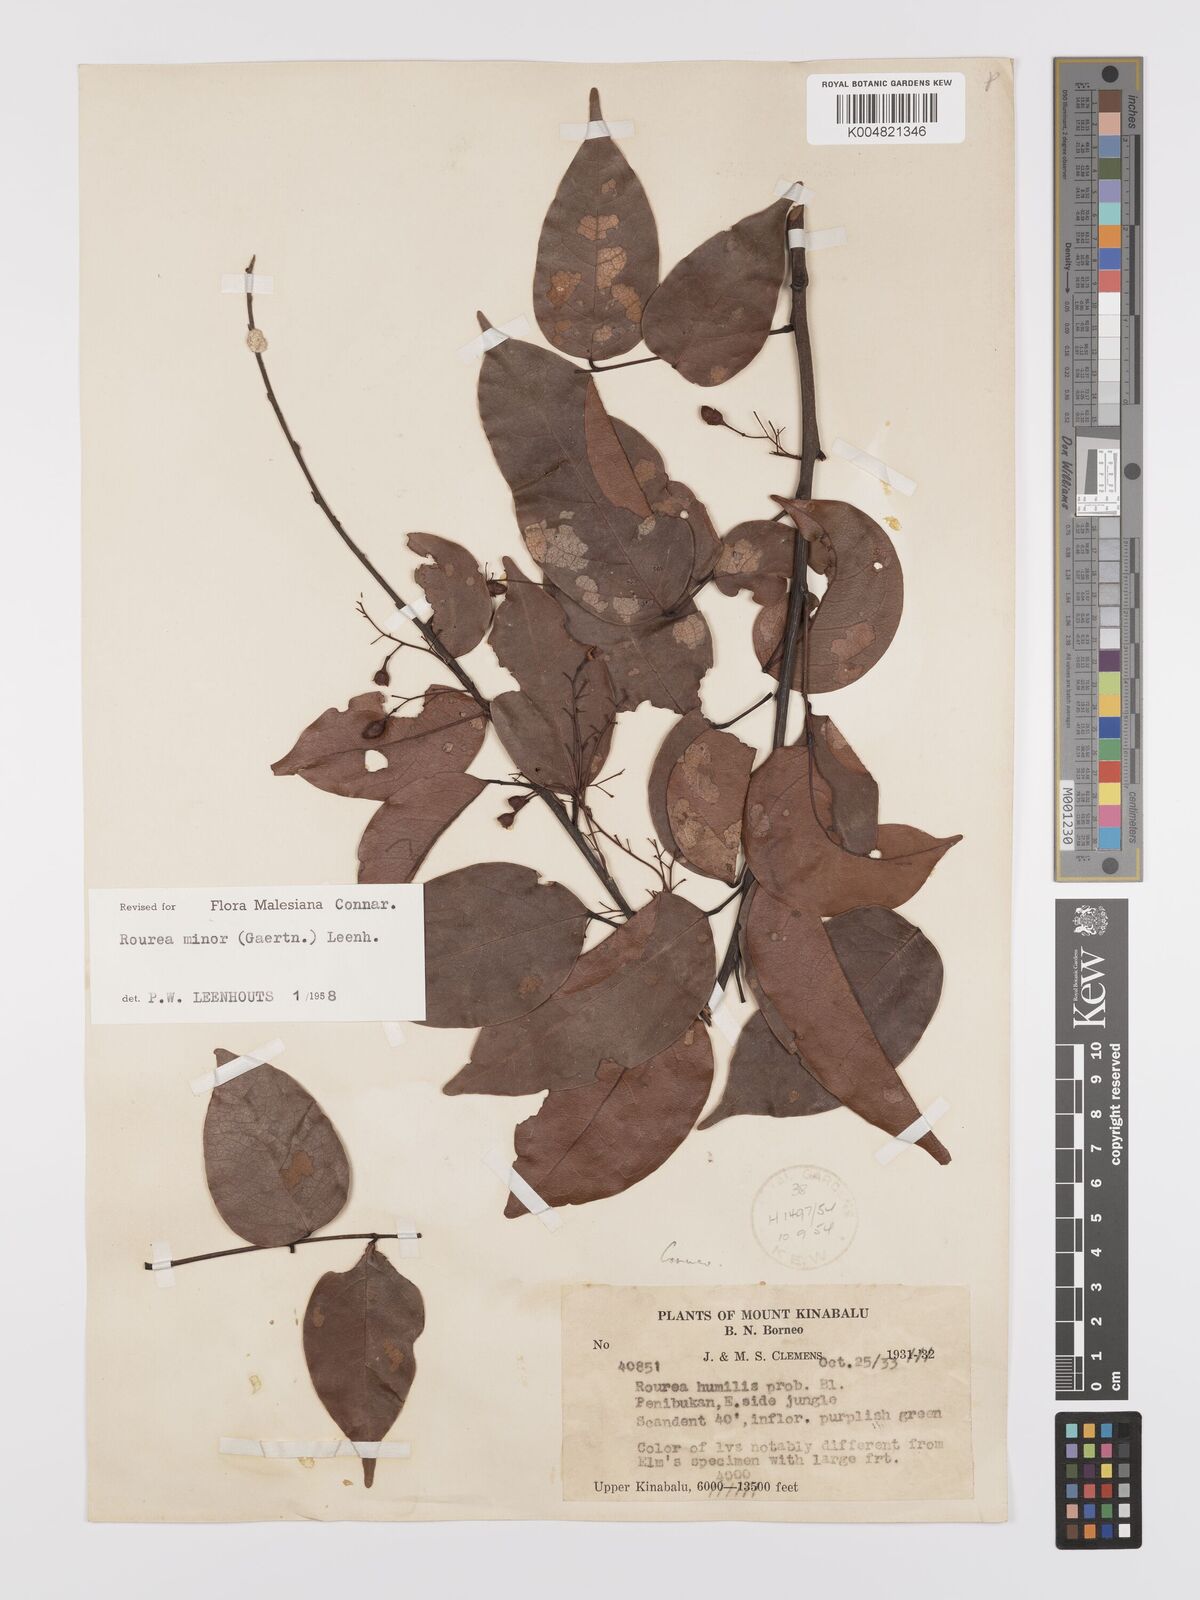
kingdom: Plantae
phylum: Tracheophyta
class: Magnoliopsida
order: Oxalidales
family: Connaraceae
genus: Rourea
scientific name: Rourea minor
